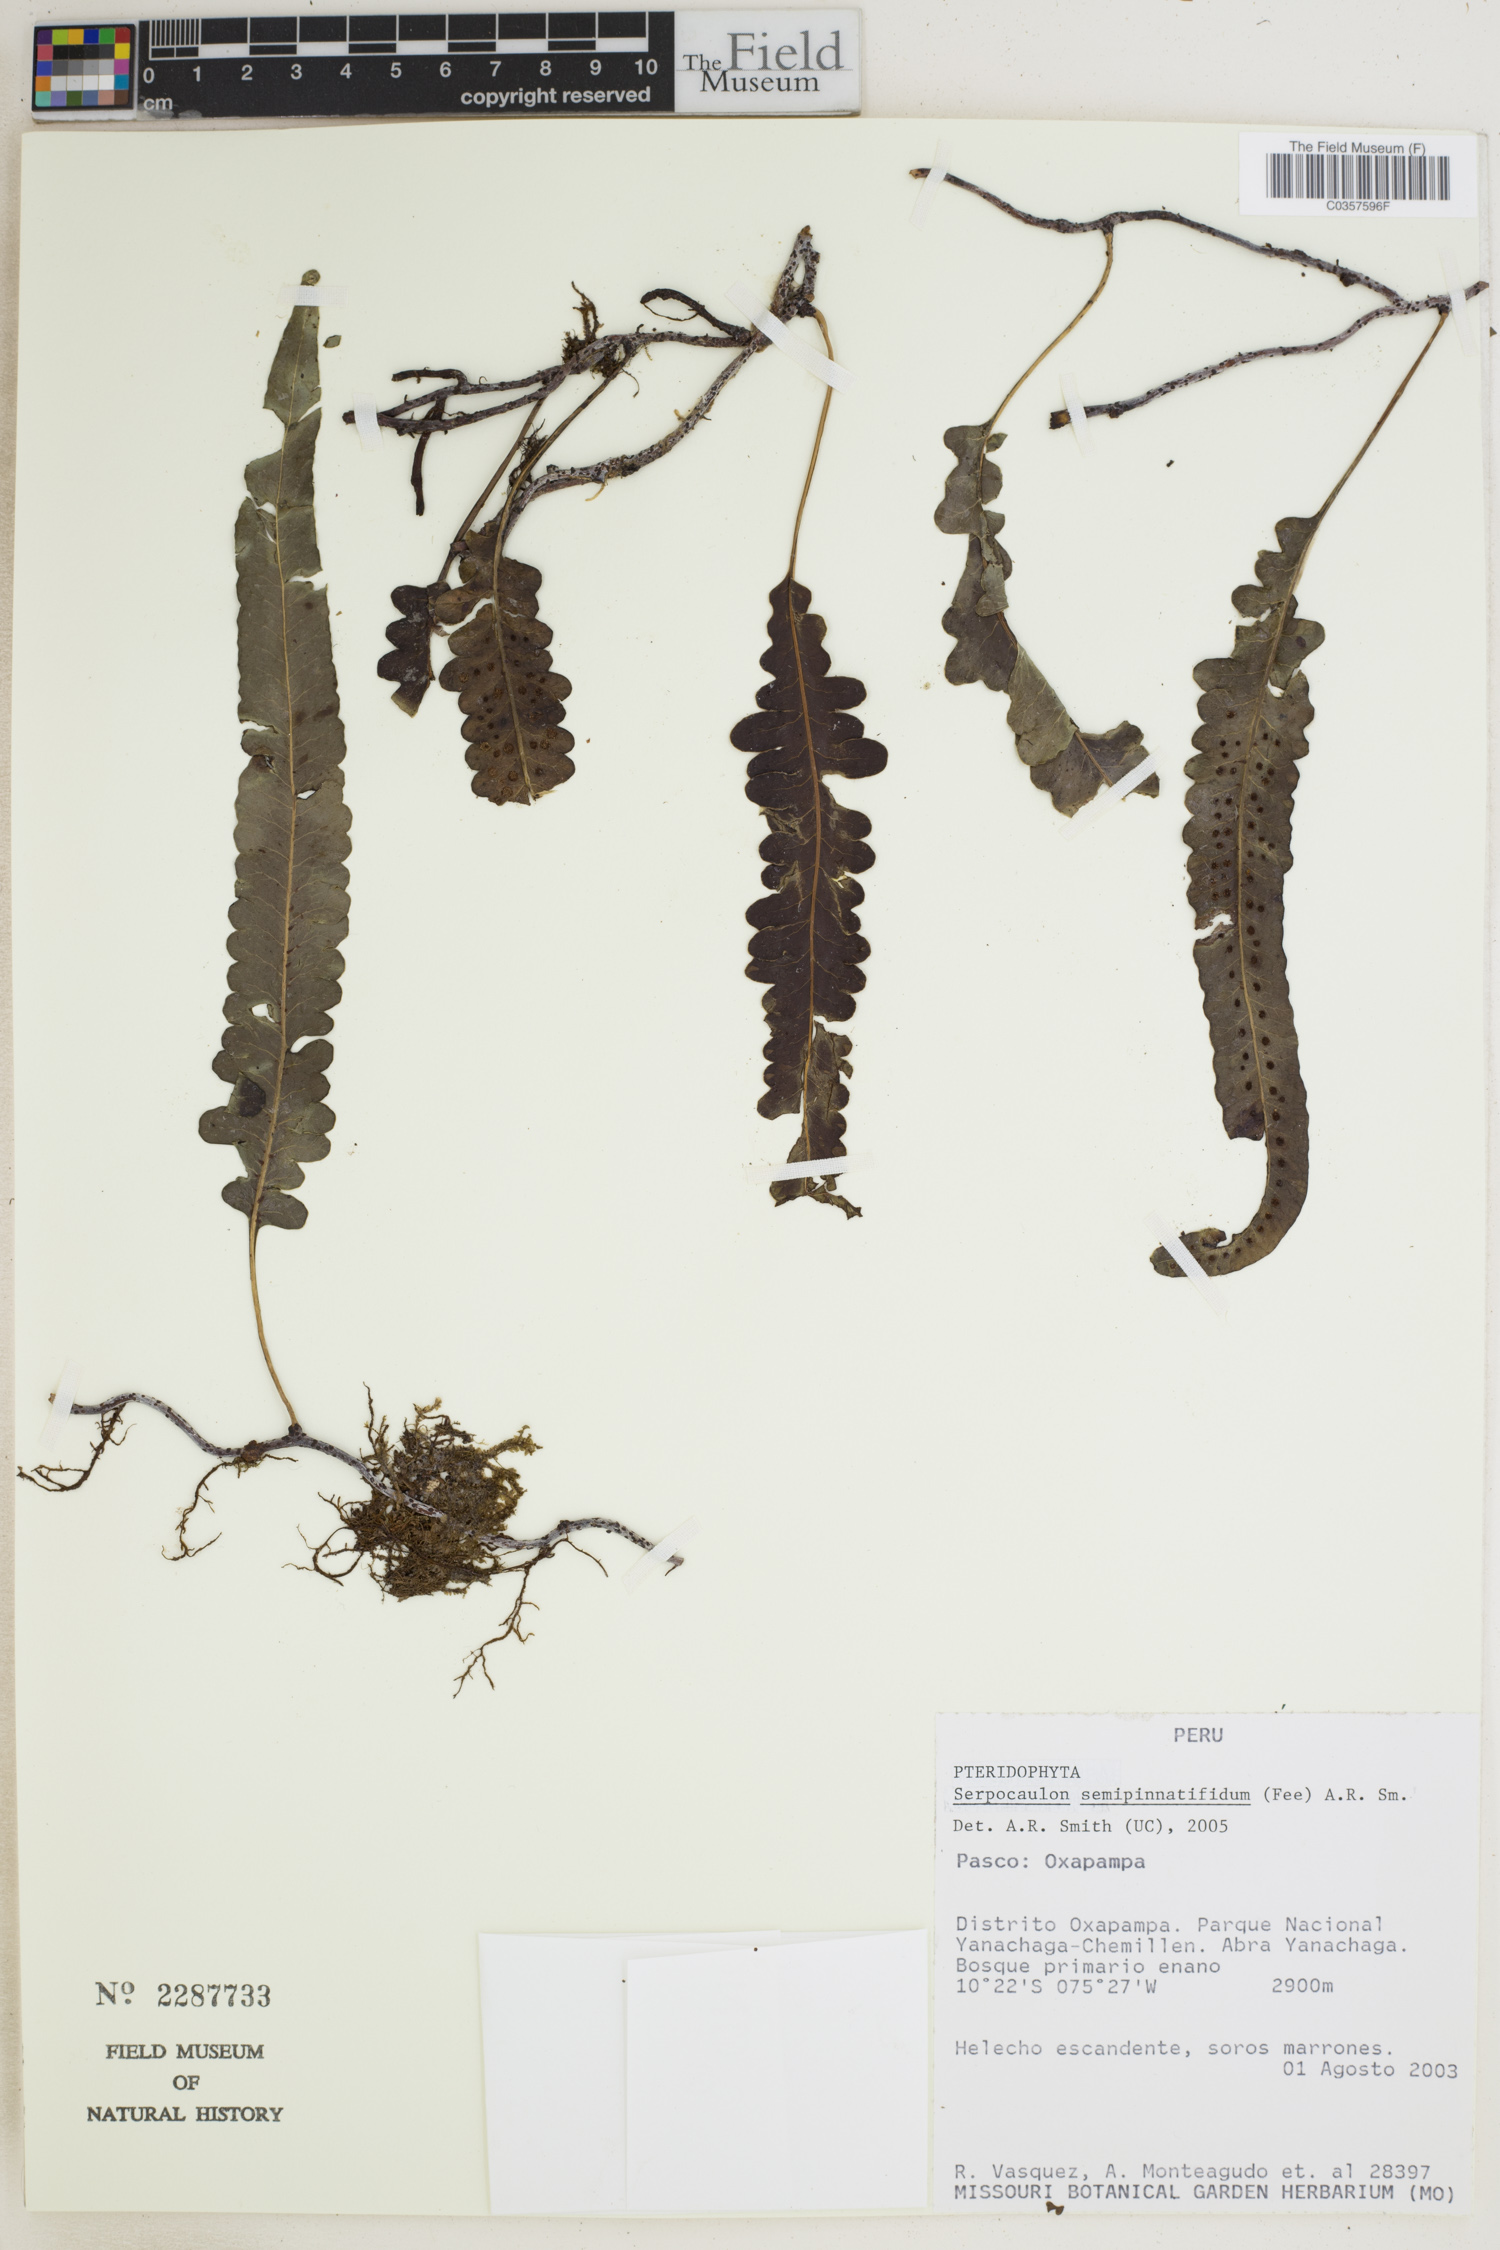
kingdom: Plantae
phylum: Tracheophyta
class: Polypodiopsida
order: Polypodiales
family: Polypodiaceae
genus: Serpocaulon
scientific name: Serpocaulon semipinnatifidum
